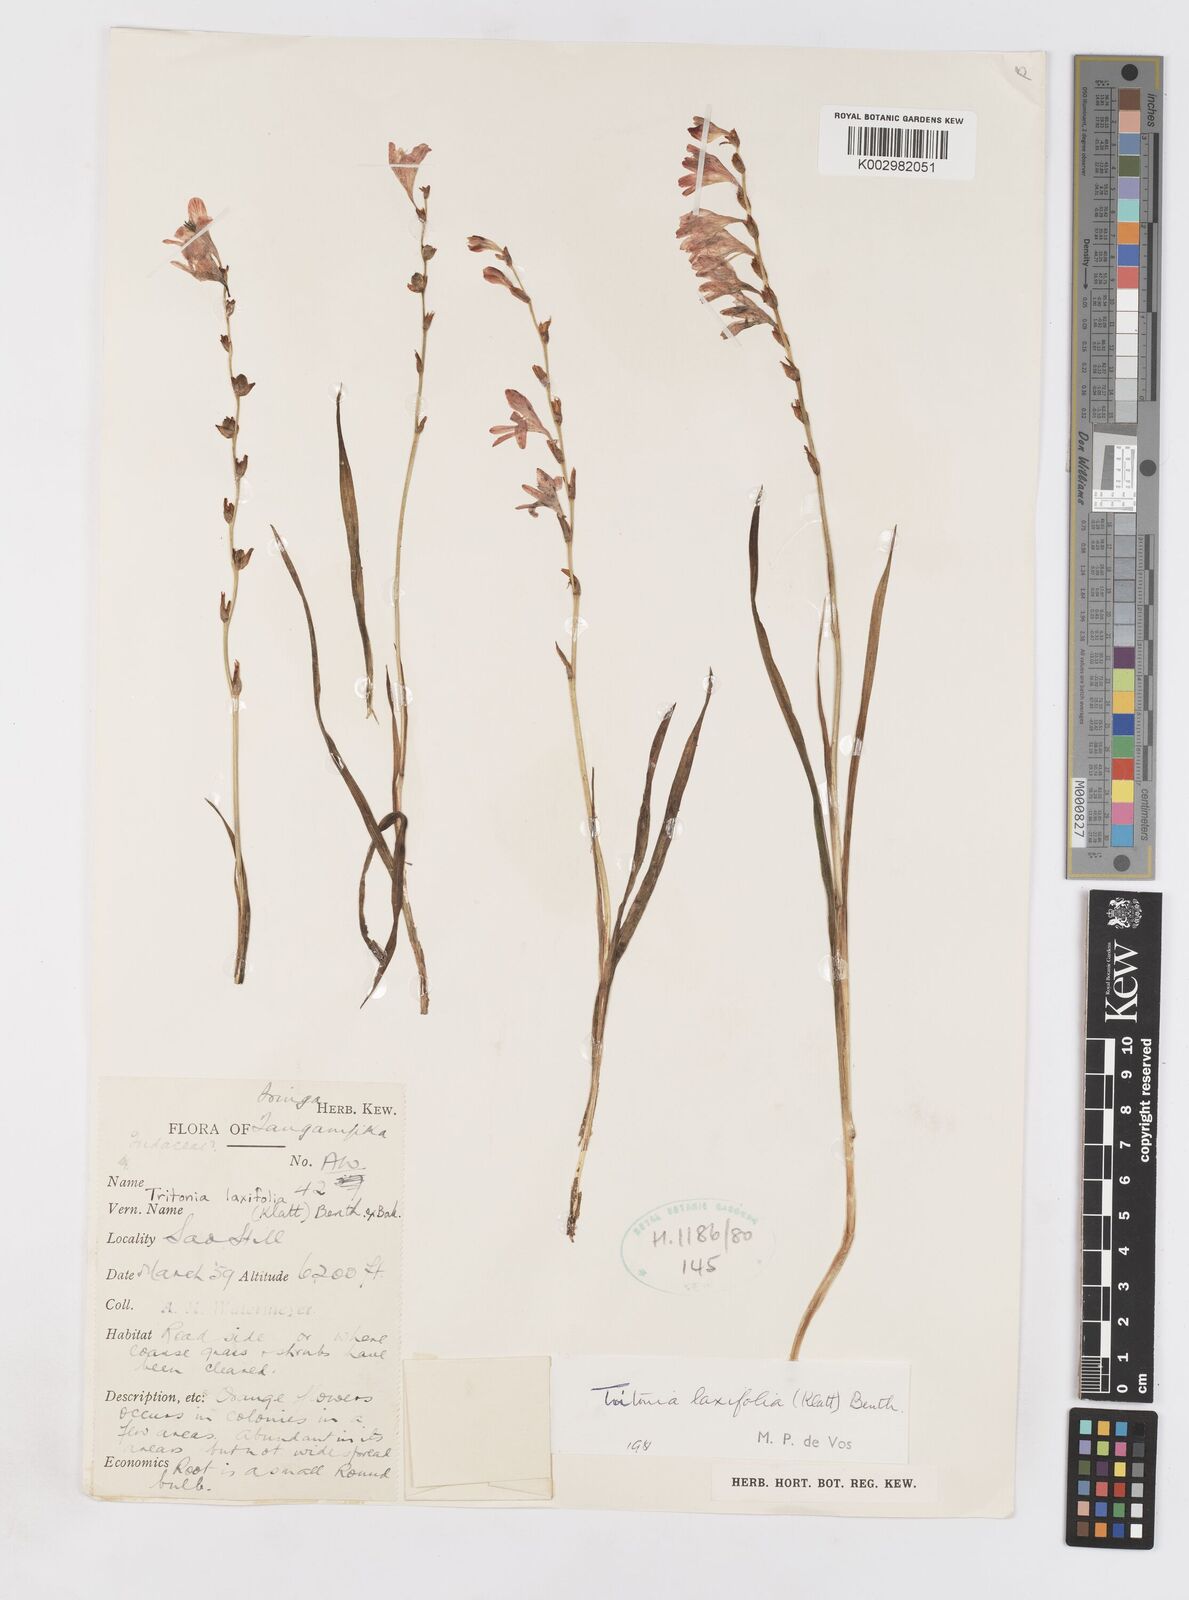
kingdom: Plantae
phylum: Tracheophyta
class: Liliopsida
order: Asparagales
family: Iridaceae
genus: Tritonia
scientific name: Tritonia
